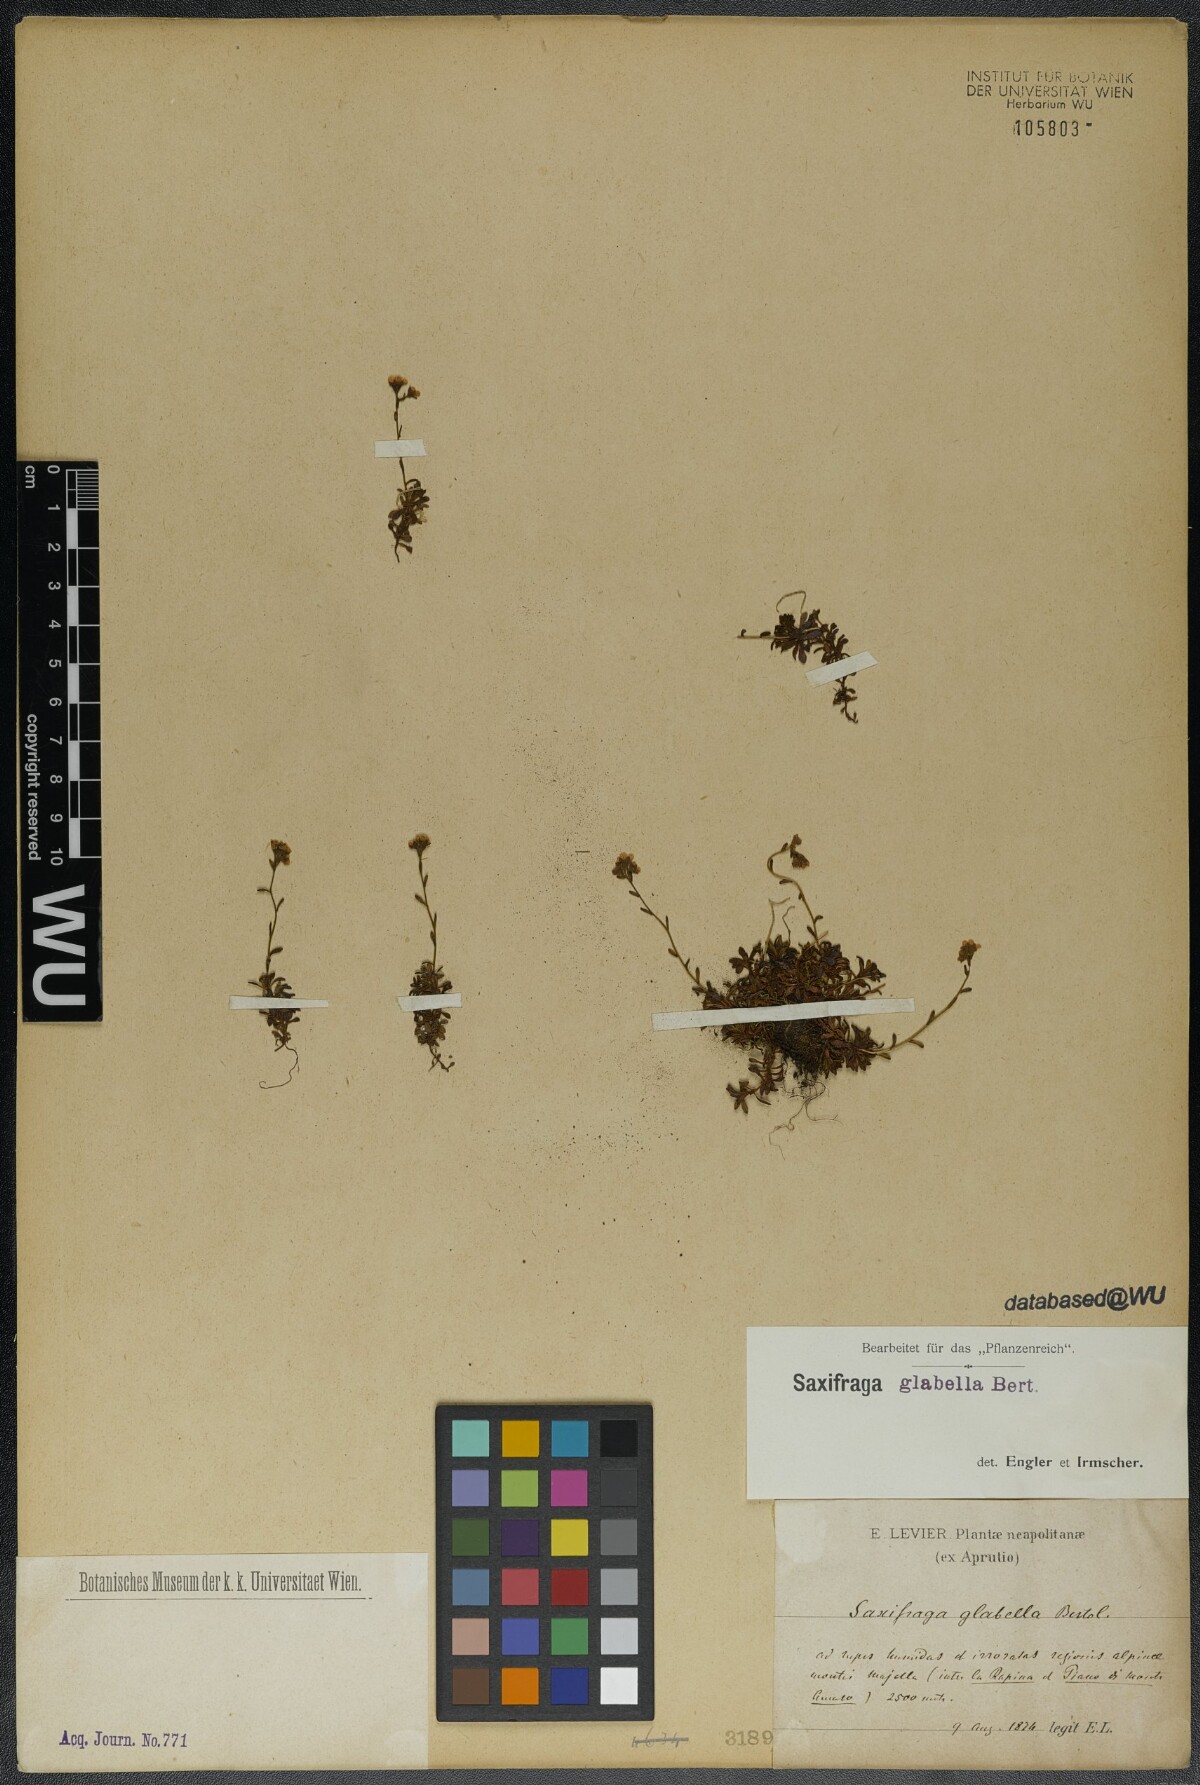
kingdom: Plantae
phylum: Tracheophyta
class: Magnoliopsida
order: Saxifragales
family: Saxifragaceae
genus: Saxifraga
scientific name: Saxifraga glabella
